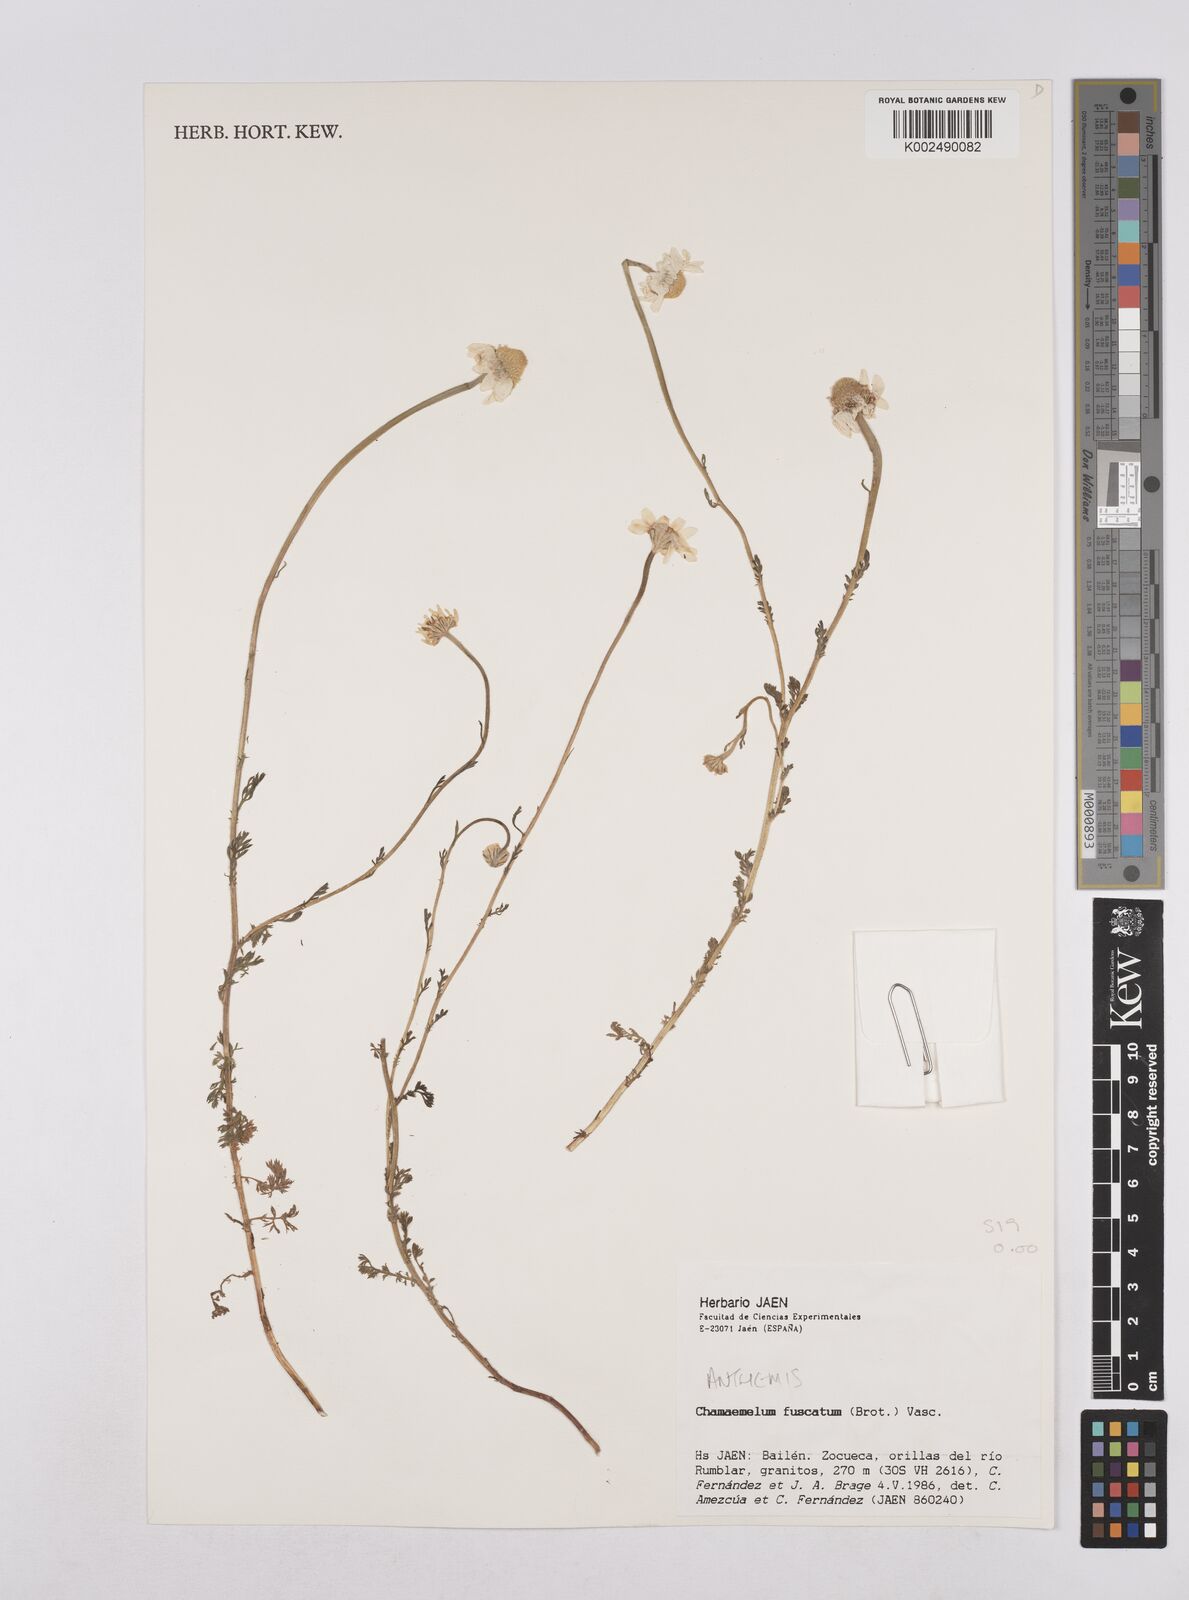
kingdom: Plantae
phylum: Tracheophyta
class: Magnoliopsida
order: Asterales
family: Asteraceae
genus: Chamaemelum
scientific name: Chamaemelum fuscatum
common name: Chamomile
